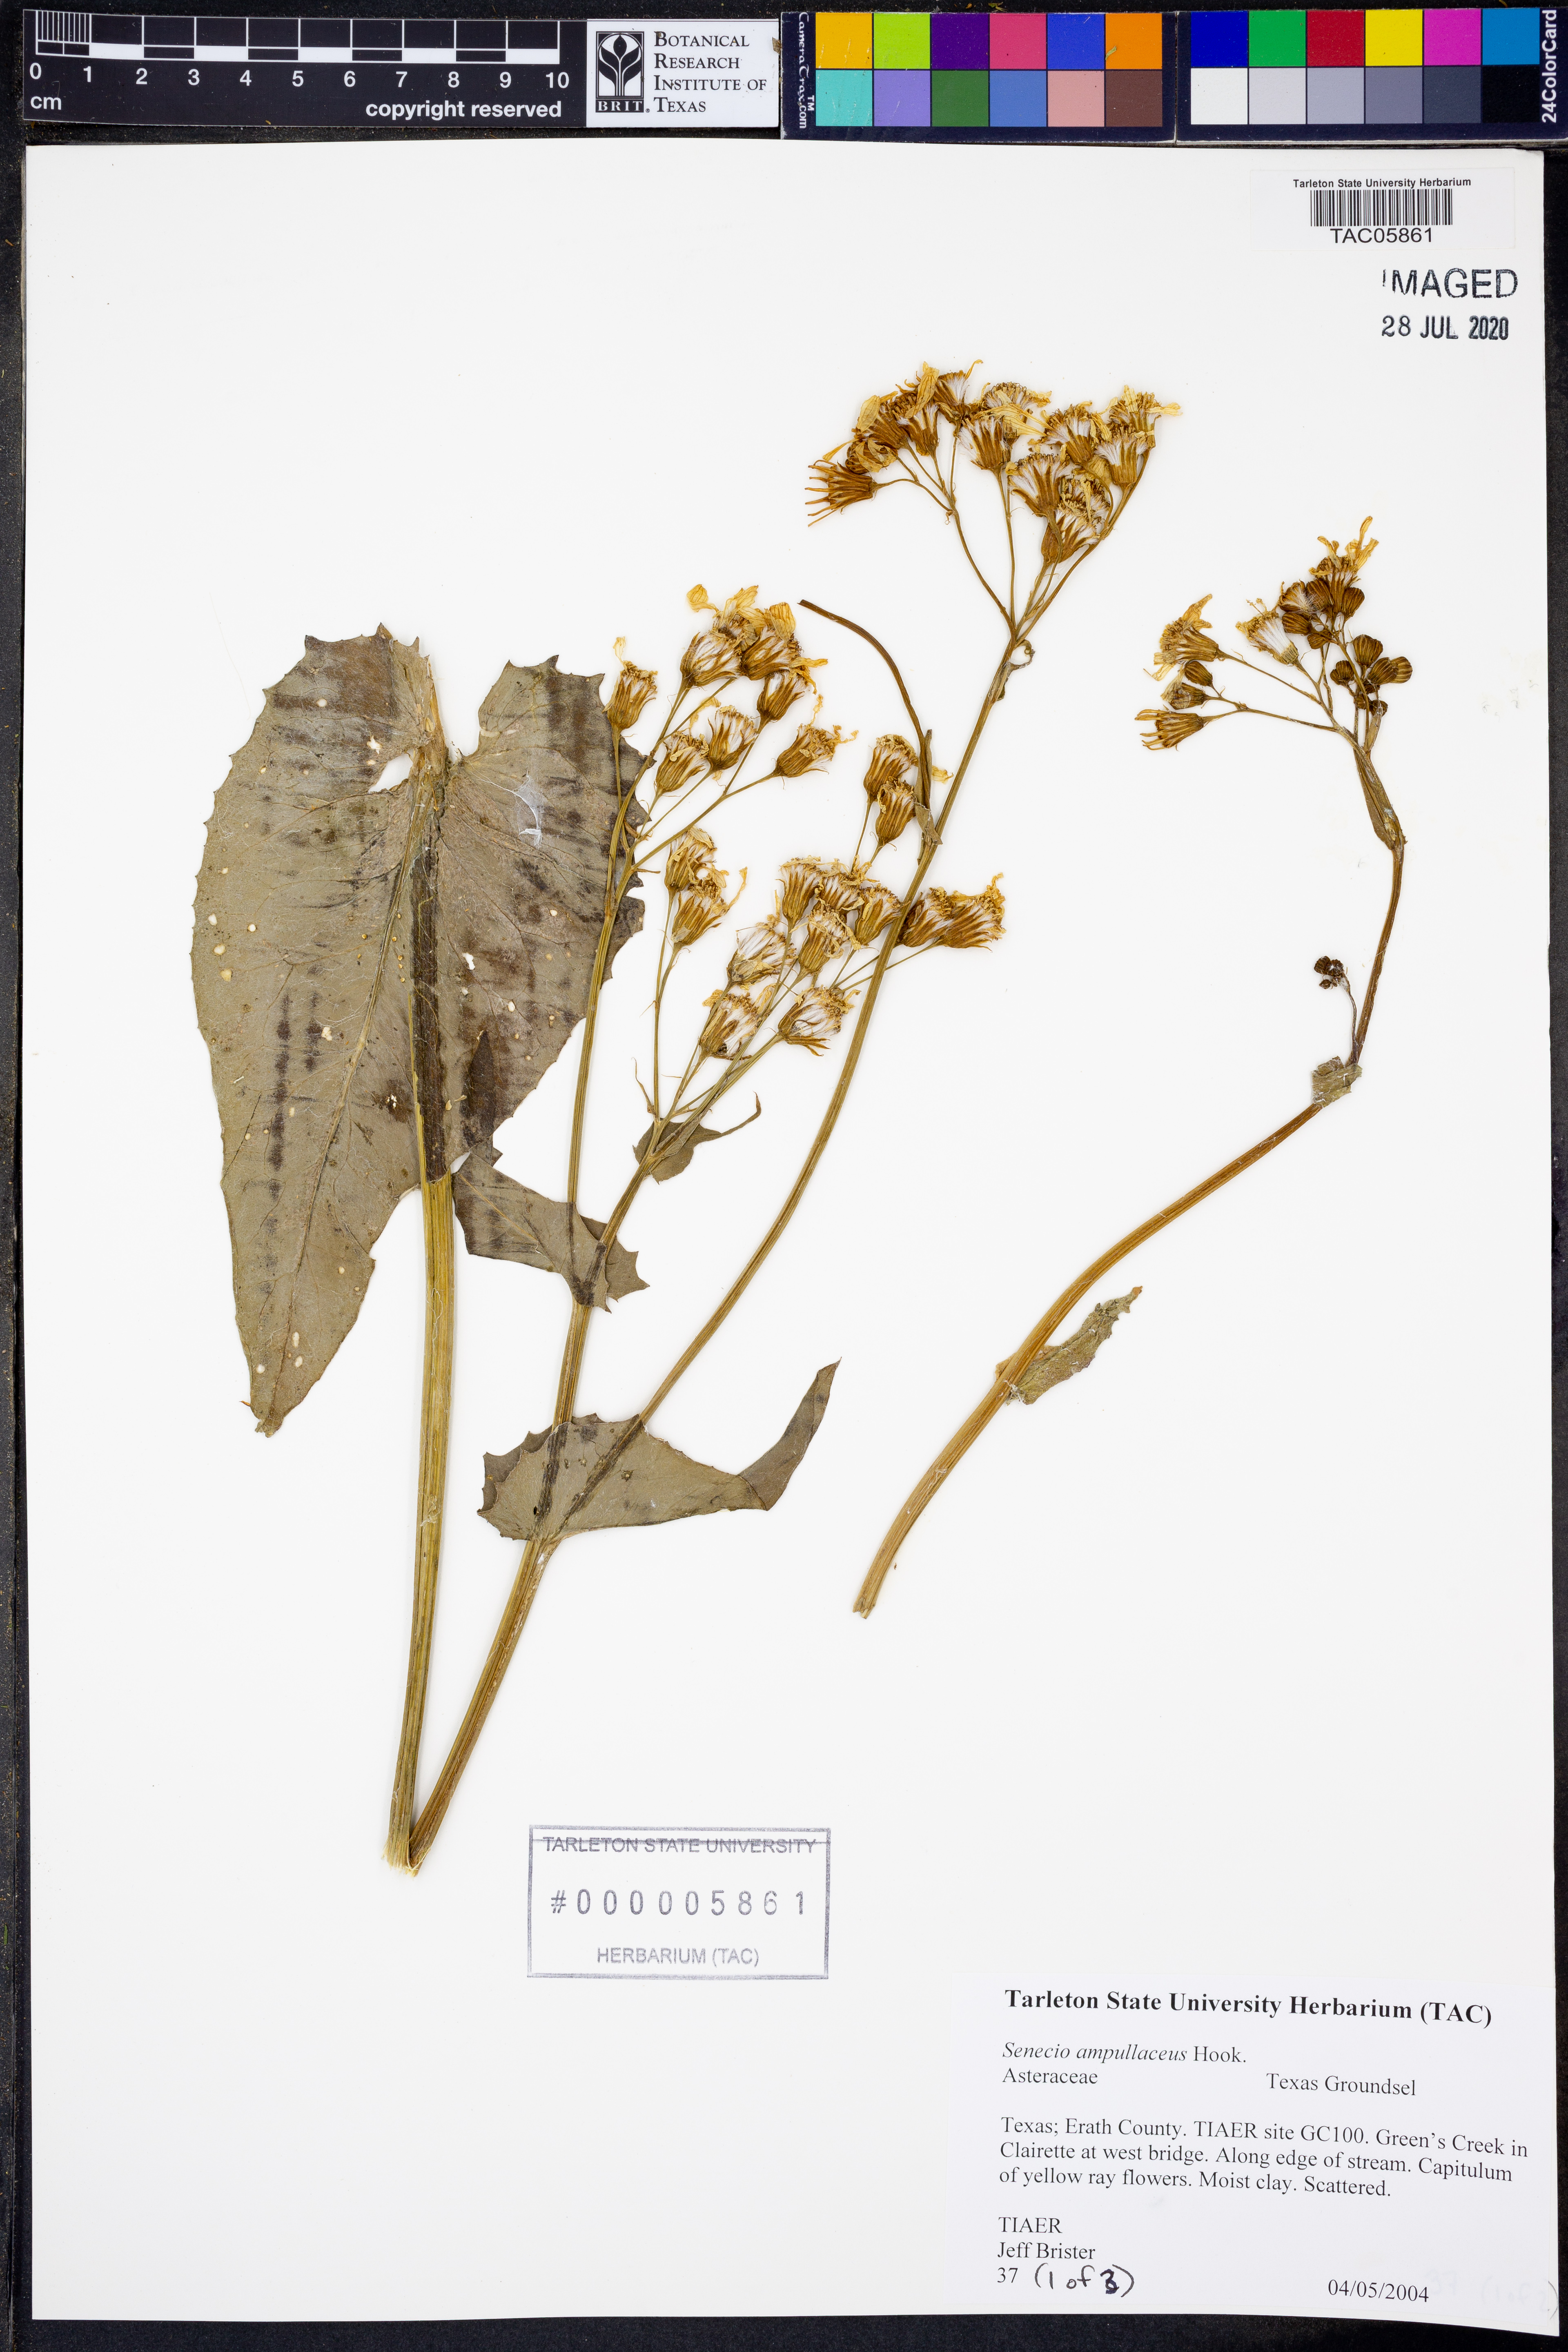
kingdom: Plantae
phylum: Tracheophyta
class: Magnoliopsida
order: Asterales
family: Asteraceae
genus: Senecio
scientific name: Senecio ampullaceus
